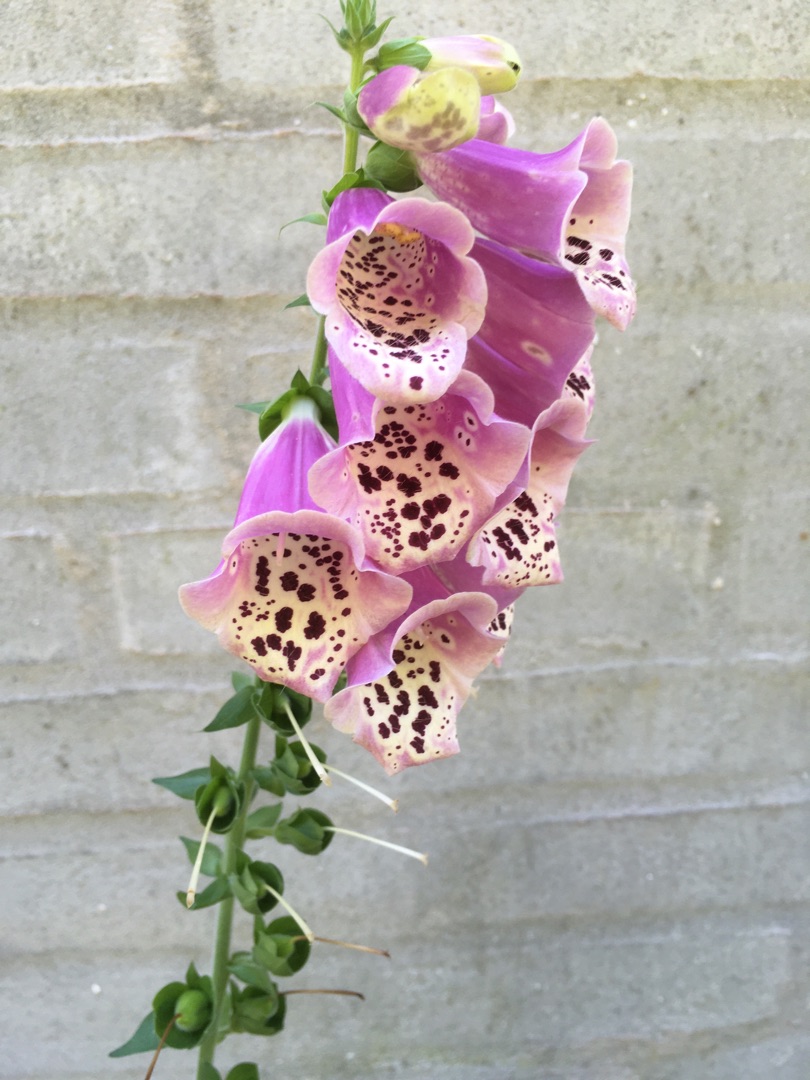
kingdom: Plantae
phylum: Tracheophyta
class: Magnoliopsida
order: Lamiales
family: Plantaginaceae
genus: Digitalis
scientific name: Digitalis purpurea
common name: Almindelig fingerbøl
